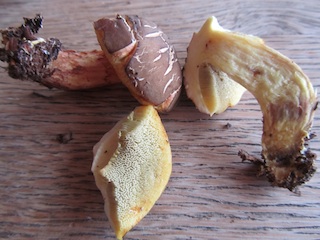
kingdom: Fungi
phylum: Basidiomycota
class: Agaricomycetes
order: Boletales
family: Boletaceae
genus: Xerocomellus
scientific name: Xerocomellus chrysenteron
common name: rødsprukken rørhat
